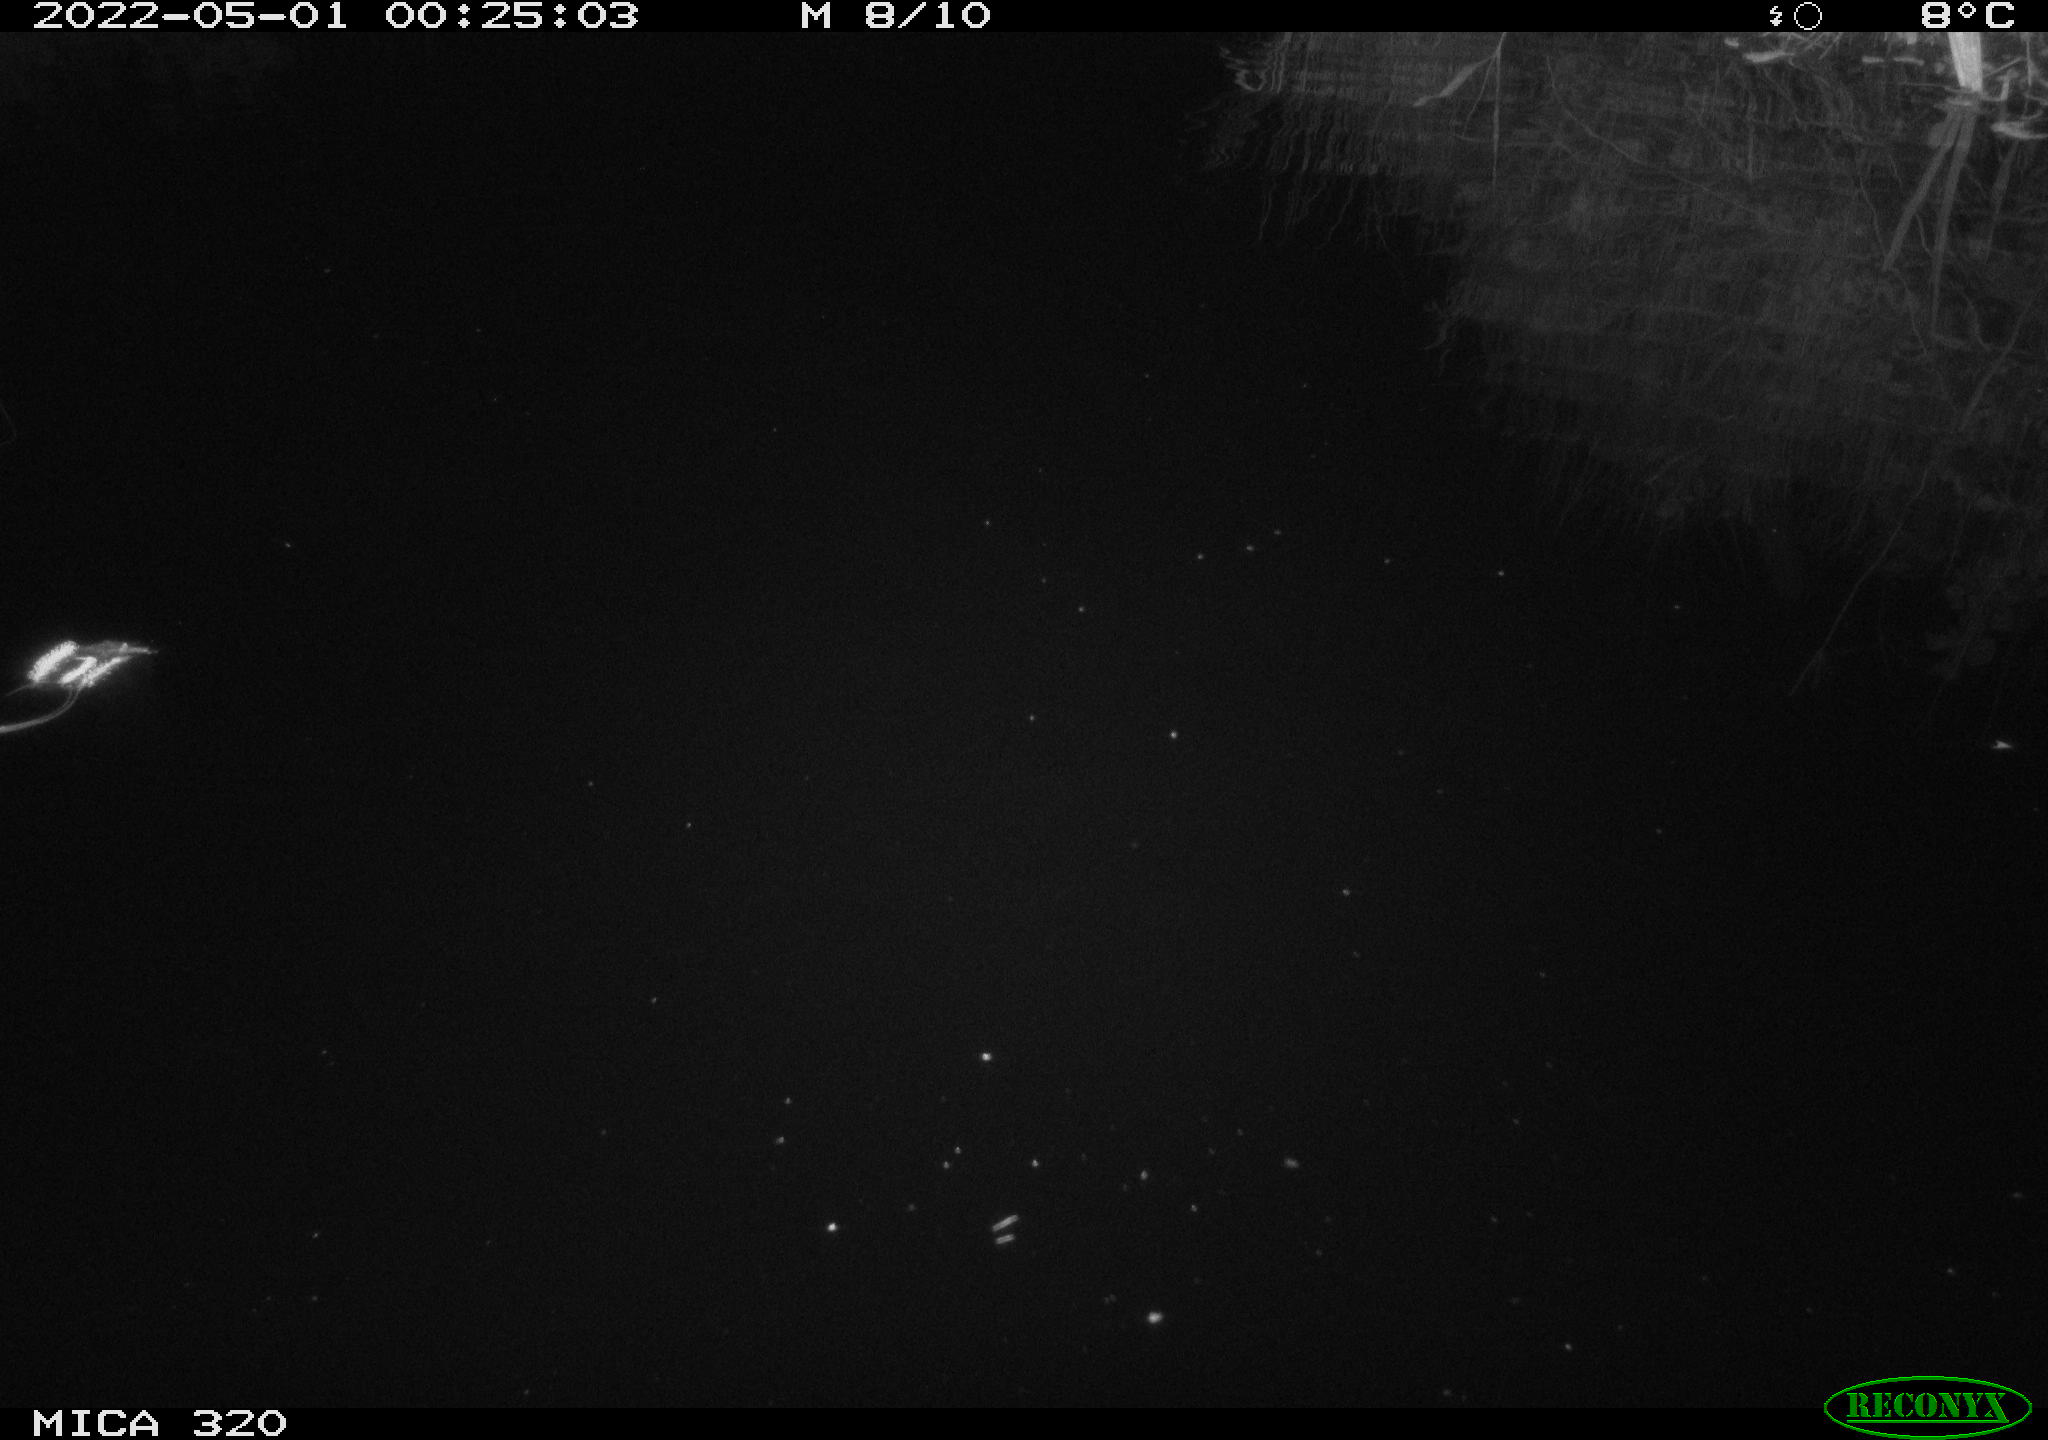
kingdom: Animalia
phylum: Chordata
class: Aves
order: Anseriformes
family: Anatidae
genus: Anas
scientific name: Anas platyrhynchos
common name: Mallard
